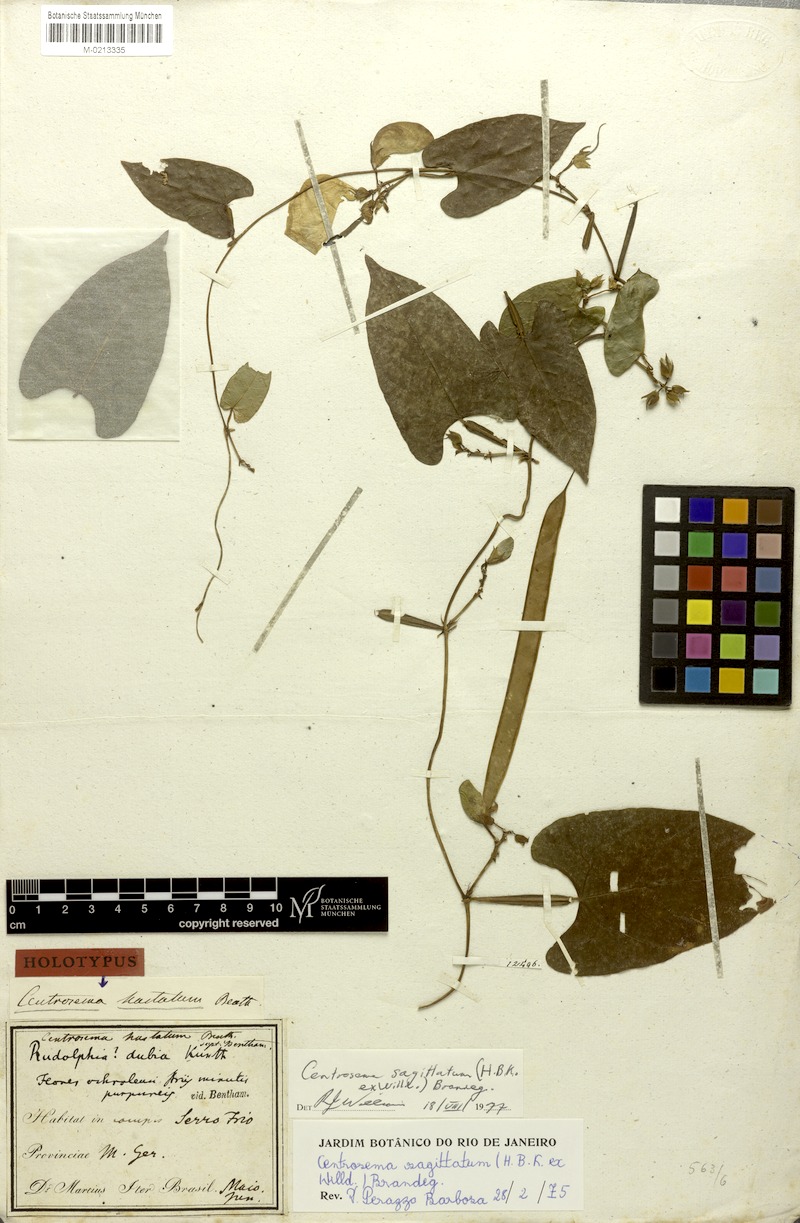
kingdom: Plantae
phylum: Tracheophyta
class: Magnoliopsida
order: Fabales
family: Fabaceae
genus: Centrosema
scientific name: Centrosema sagittatum
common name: Arrowleaf butterfly pea
